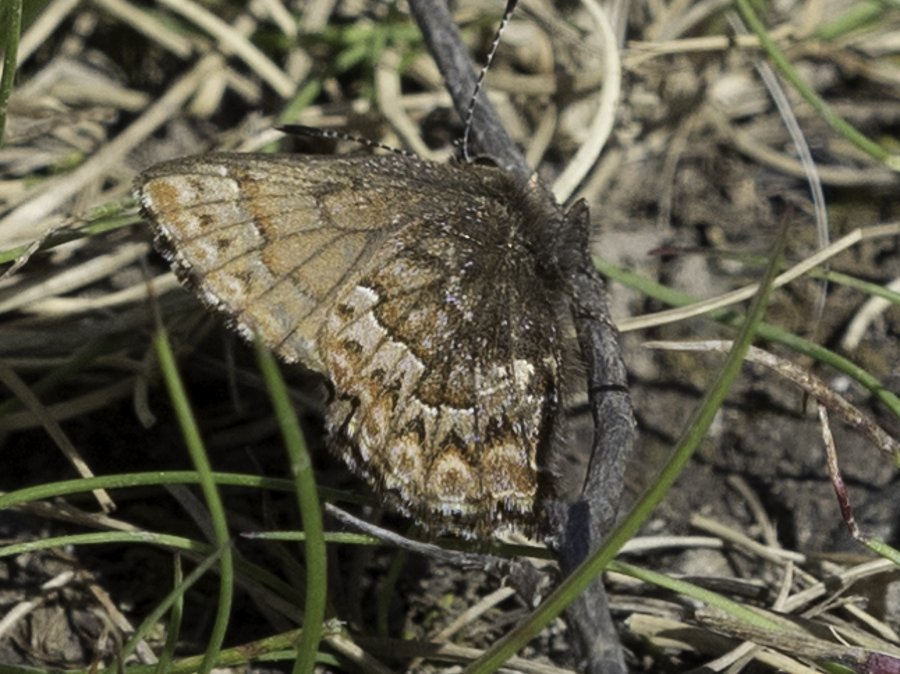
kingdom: Animalia
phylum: Arthropoda
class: Insecta
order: Lepidoptera
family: Lycaenidae
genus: Incisalia
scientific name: Incisalia eryphon
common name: Western Pine Elfin
